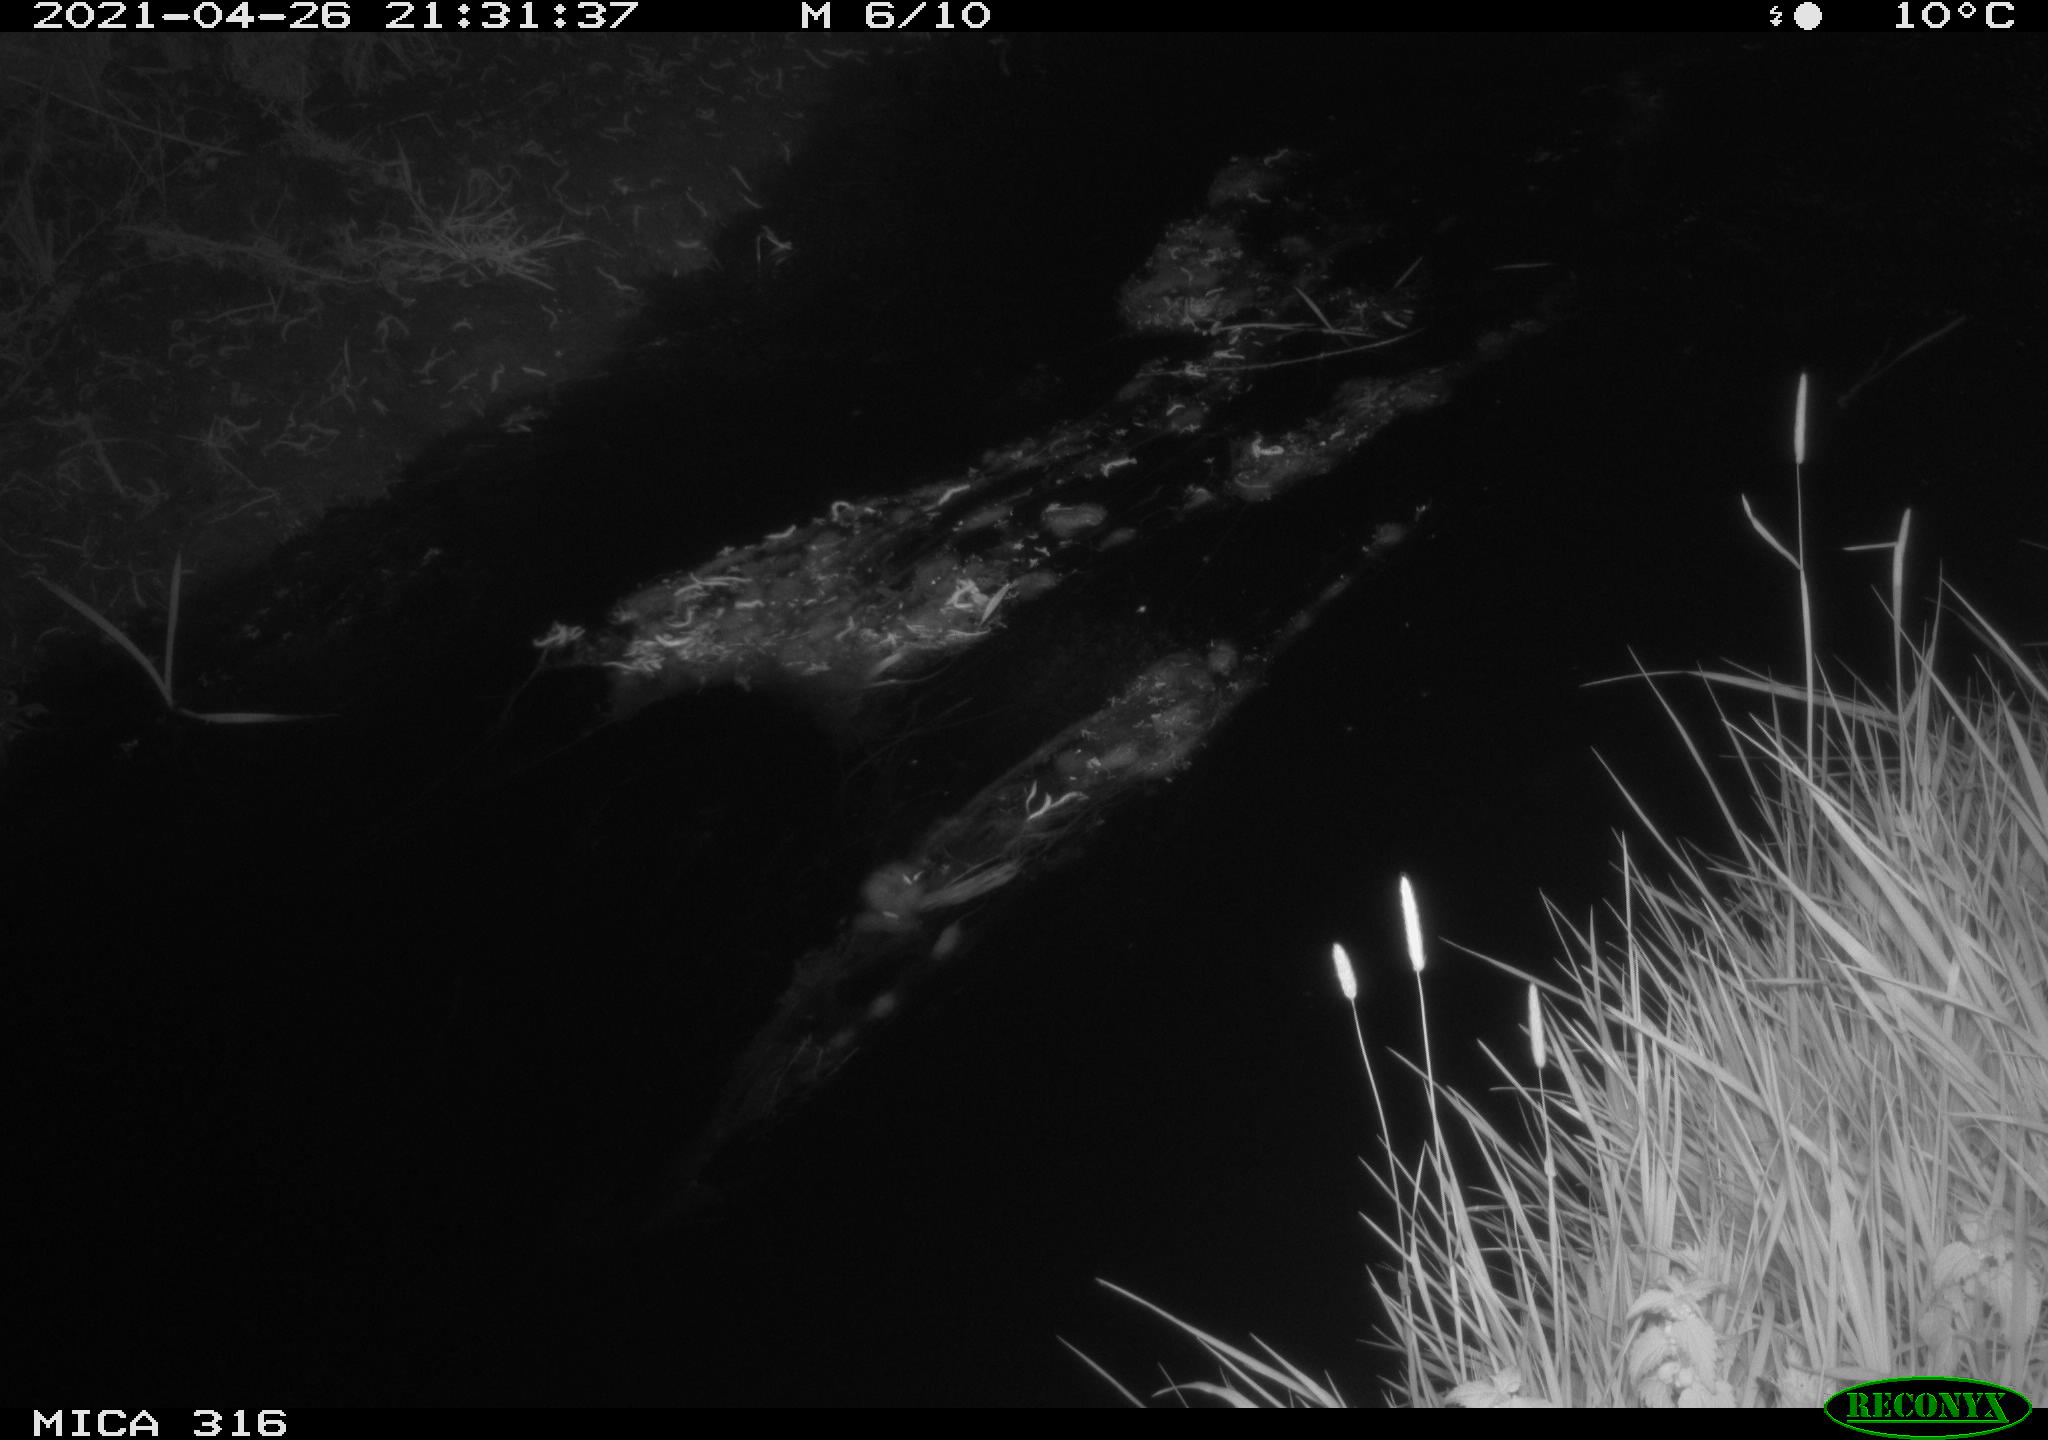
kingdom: Animalia
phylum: Chordata
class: Aves
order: Anseriformes
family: Anatidae
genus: Anas
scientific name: Anas platyrhynchos
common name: Mallard
